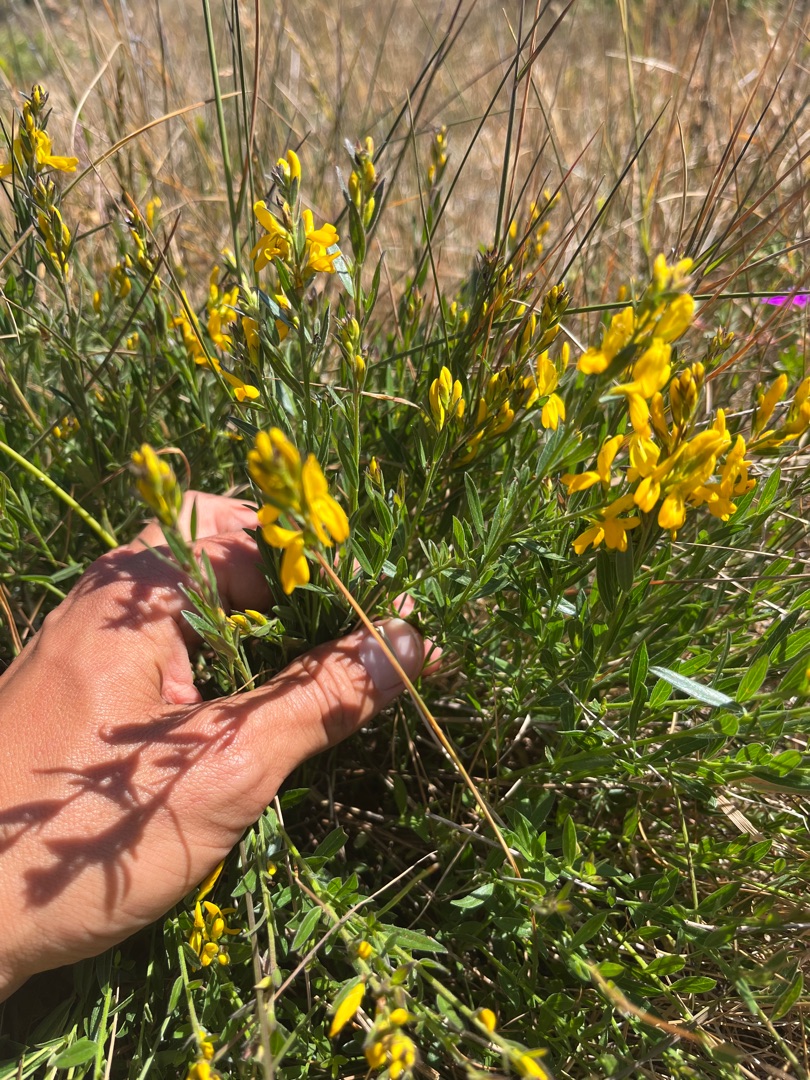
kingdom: Plantae
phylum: Tracheophyta
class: Magnoliopsida
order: Fabales
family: Fabaceae
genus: Genista
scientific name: Genista tinctoria
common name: Farve-visse
